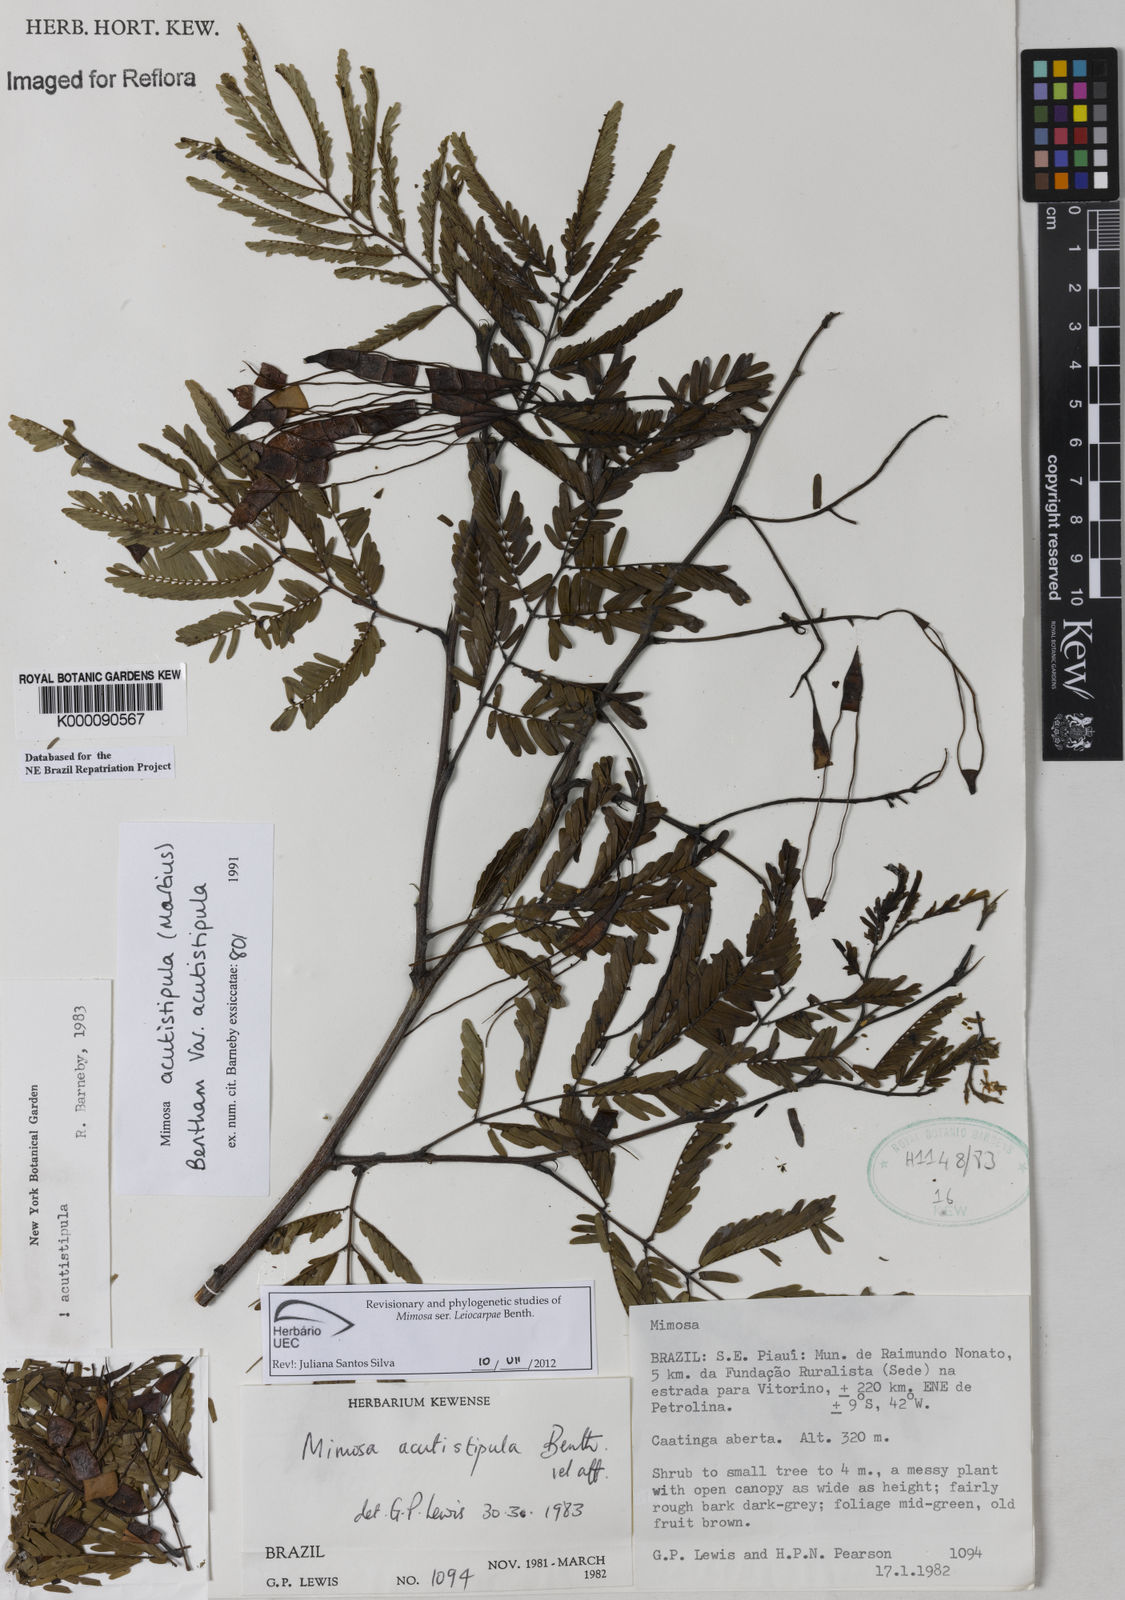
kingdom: Plantae
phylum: Tracheophyta
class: Magnoliopsida
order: Fabales
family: Fabaceae
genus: Mimosa
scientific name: Mimosa acutistipula
